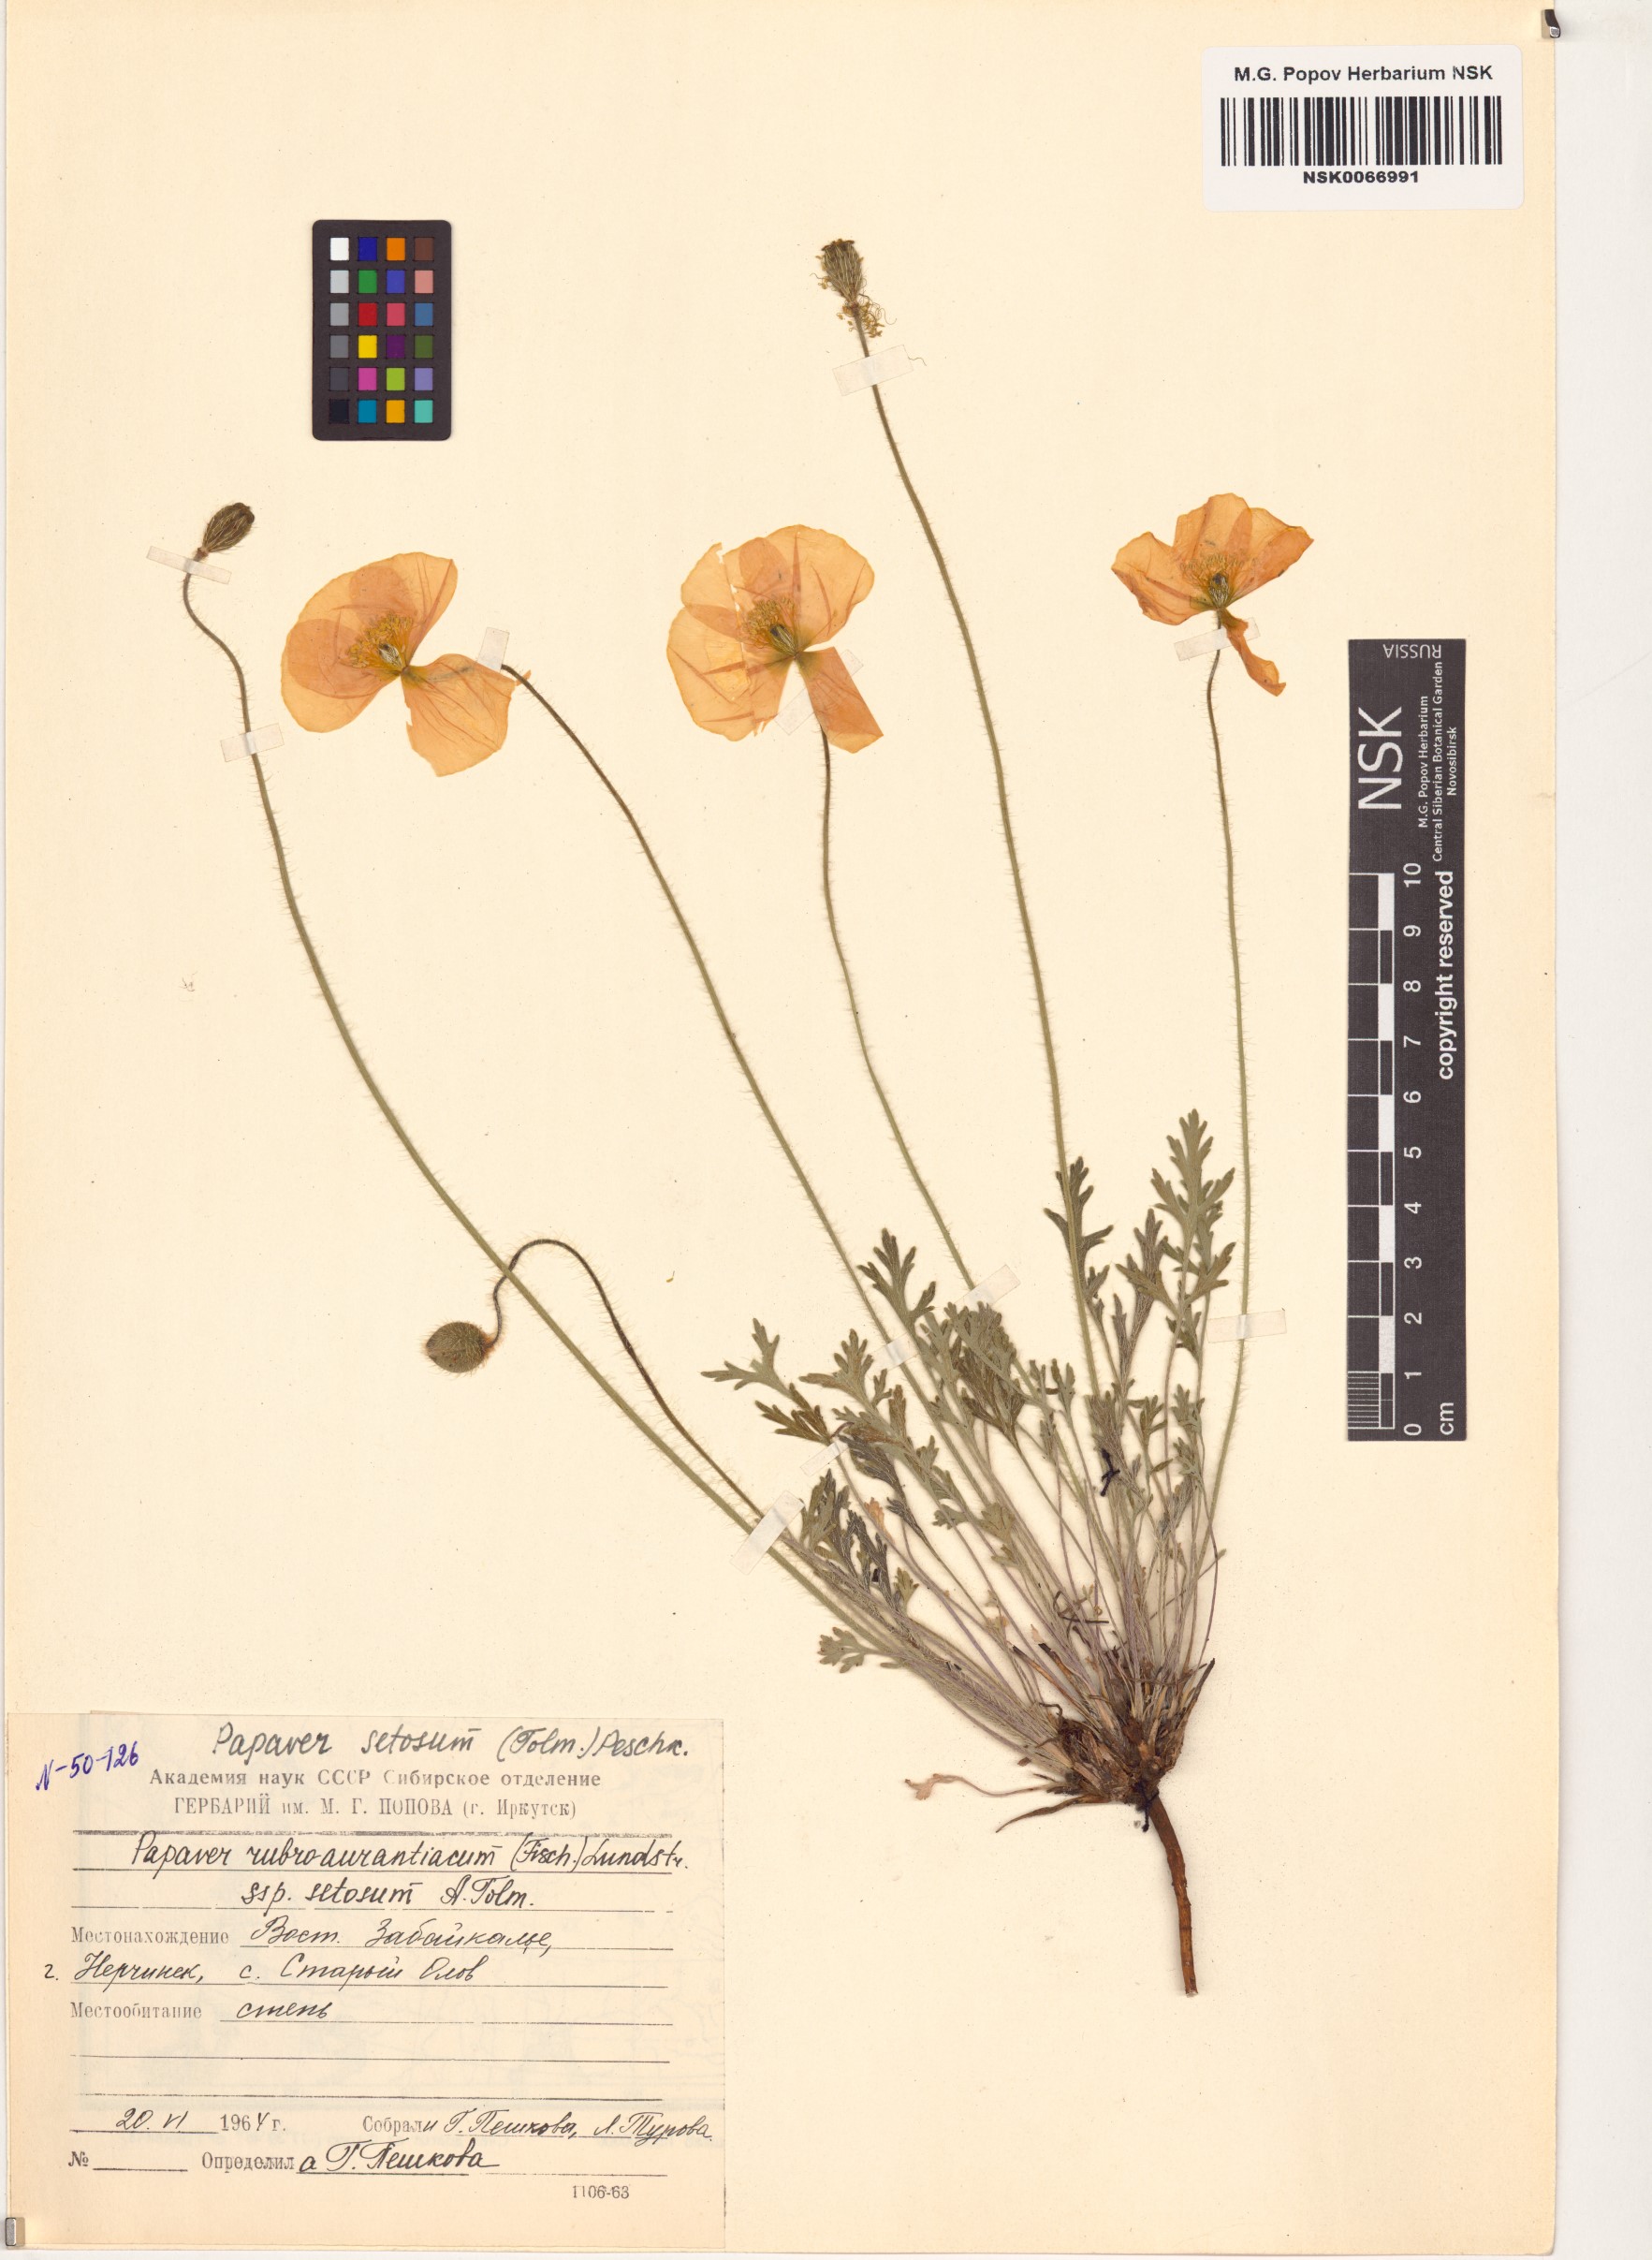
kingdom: Plantae
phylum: Tracheophyta
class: Magnoliopsida
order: Ranunculales
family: Papaveraceae
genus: Papaver
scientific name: Papaver setosum
